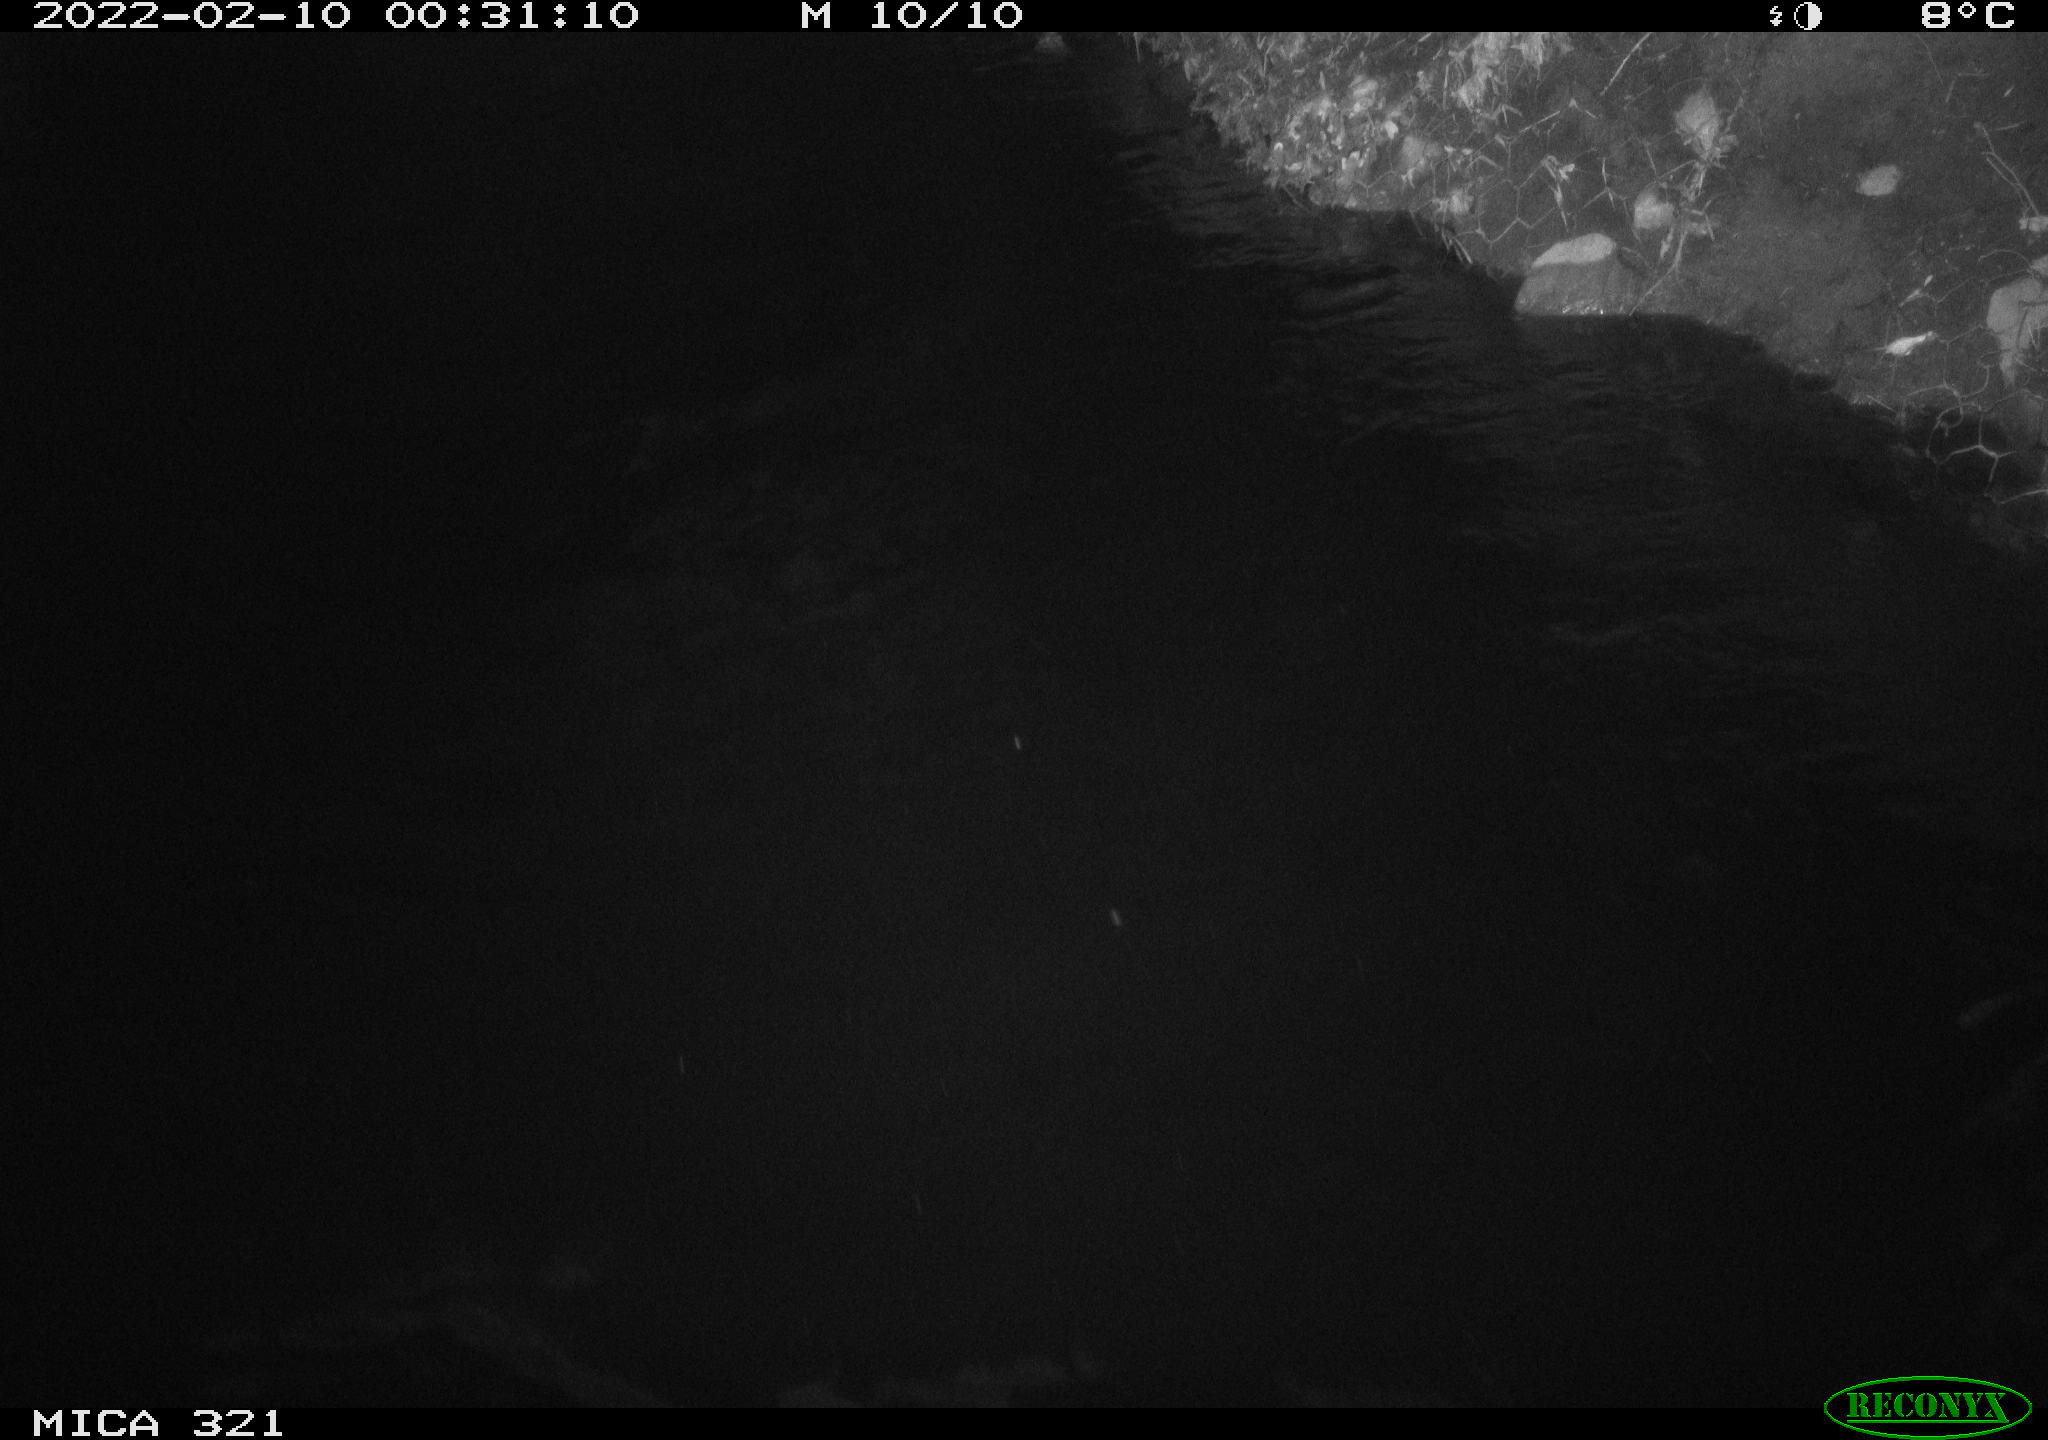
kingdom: Animalia
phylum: Chordata
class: Aves
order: Anseriformes
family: Anatidae
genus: Anas
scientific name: Anas platyrhynchos
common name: Mallard
